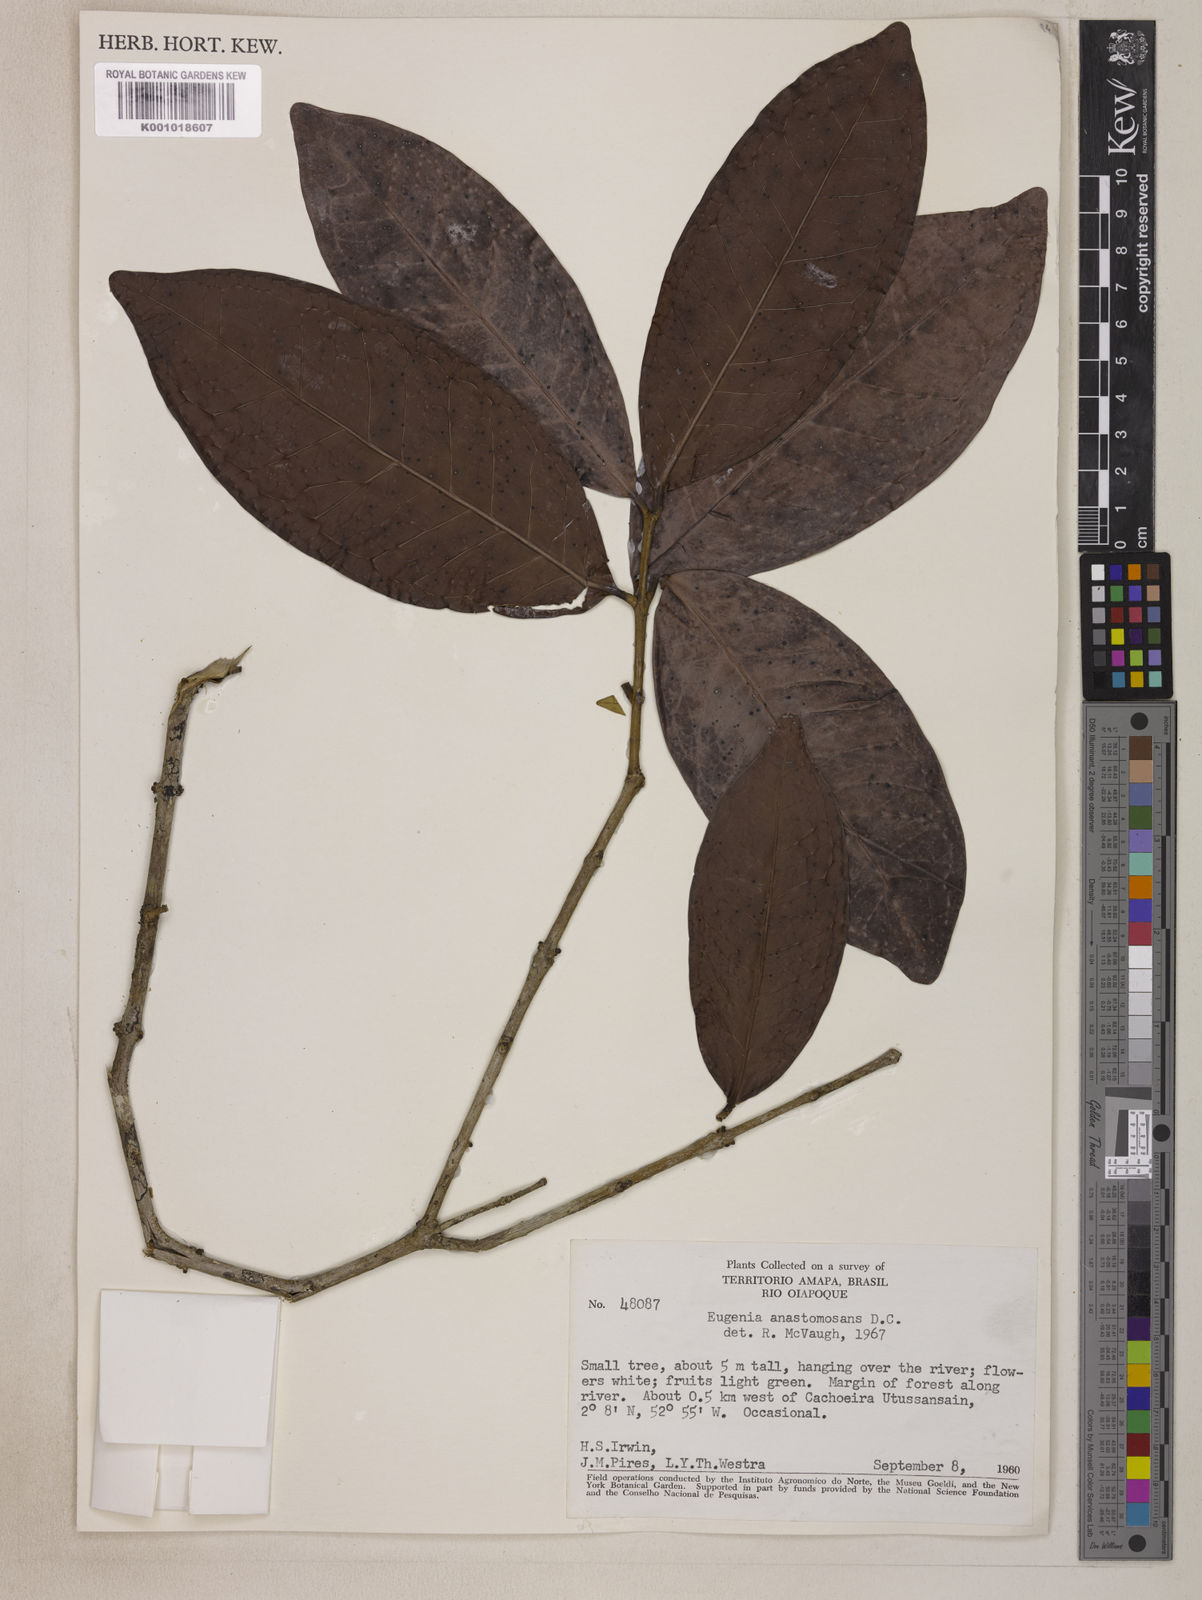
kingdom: Plantae
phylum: Tracheophyta
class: Magnoliopsida
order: Myrtales
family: Myrtaceae
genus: Eugenia
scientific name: Eugenia anastomosans
